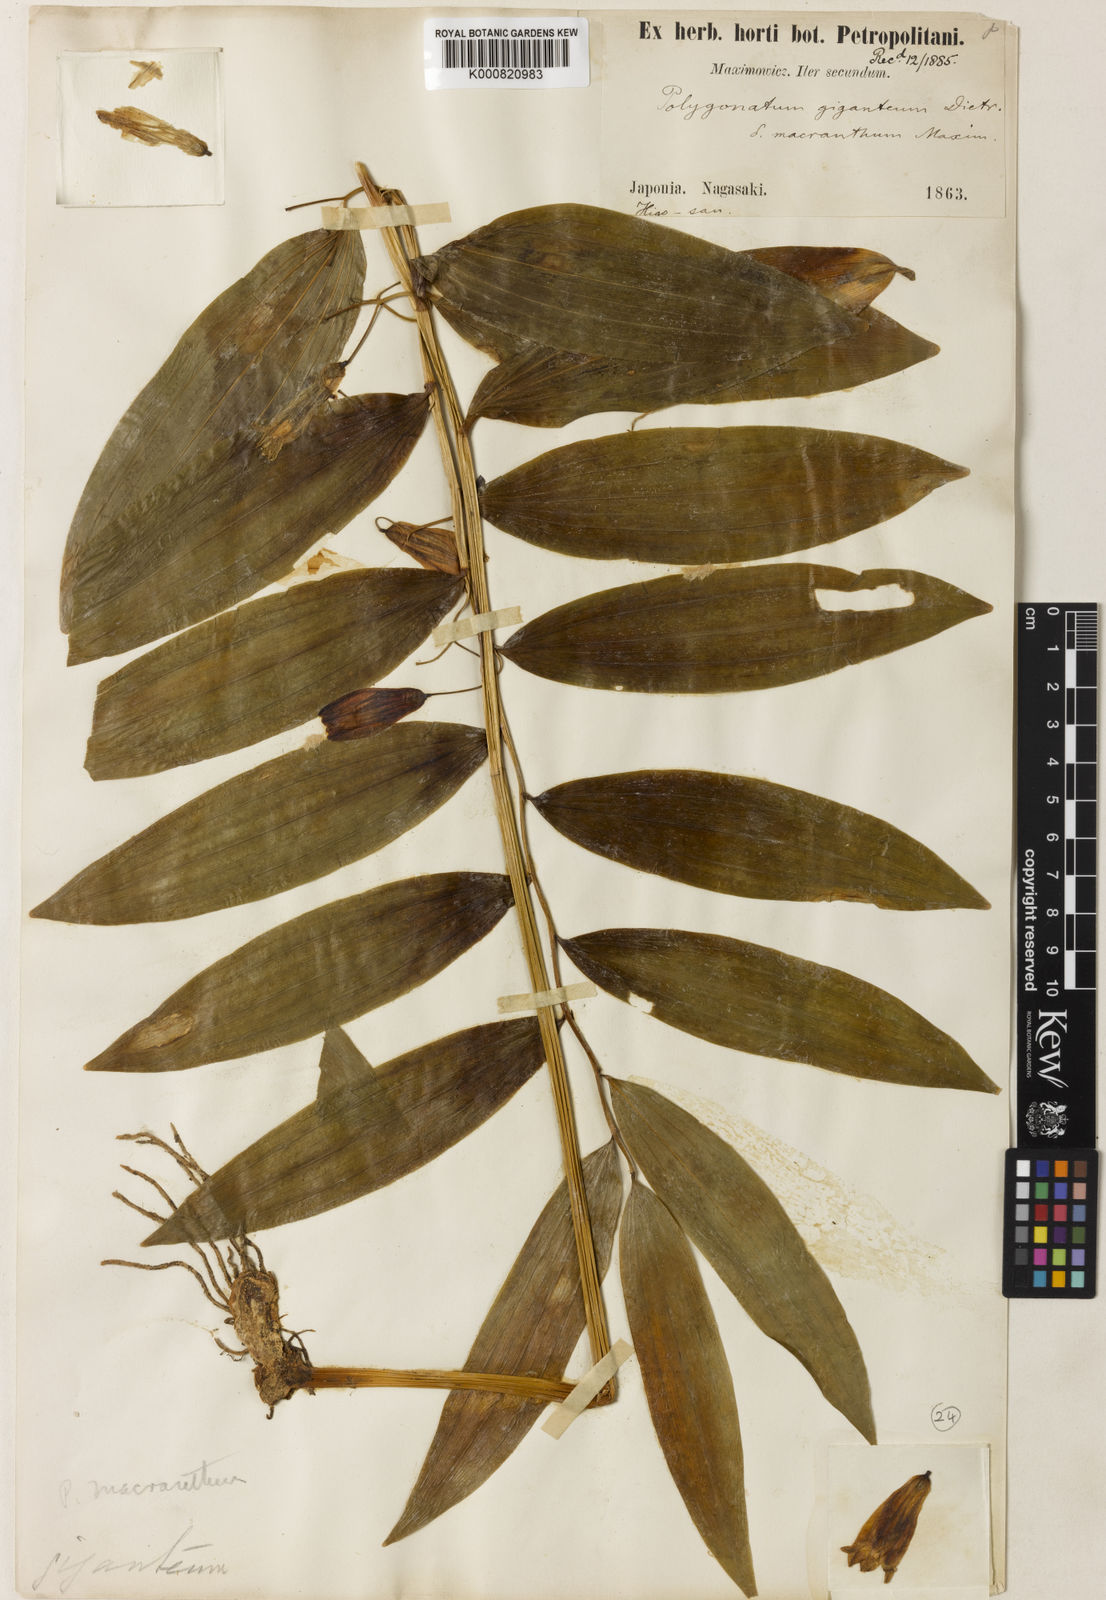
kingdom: Plantae
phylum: Tracheophyta
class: Liliopsida
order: Asparagales
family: Asparagaceae
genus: Polygonatum
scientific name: Polygonatum falcatum
